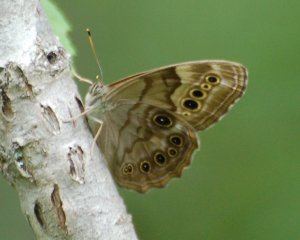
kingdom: Animalia
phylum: Arthropoda
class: Insecta
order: Lepidoptera
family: Nymphalidae
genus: Lethe
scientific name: Lethe anthedon
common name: Northern Pearly-Eye
